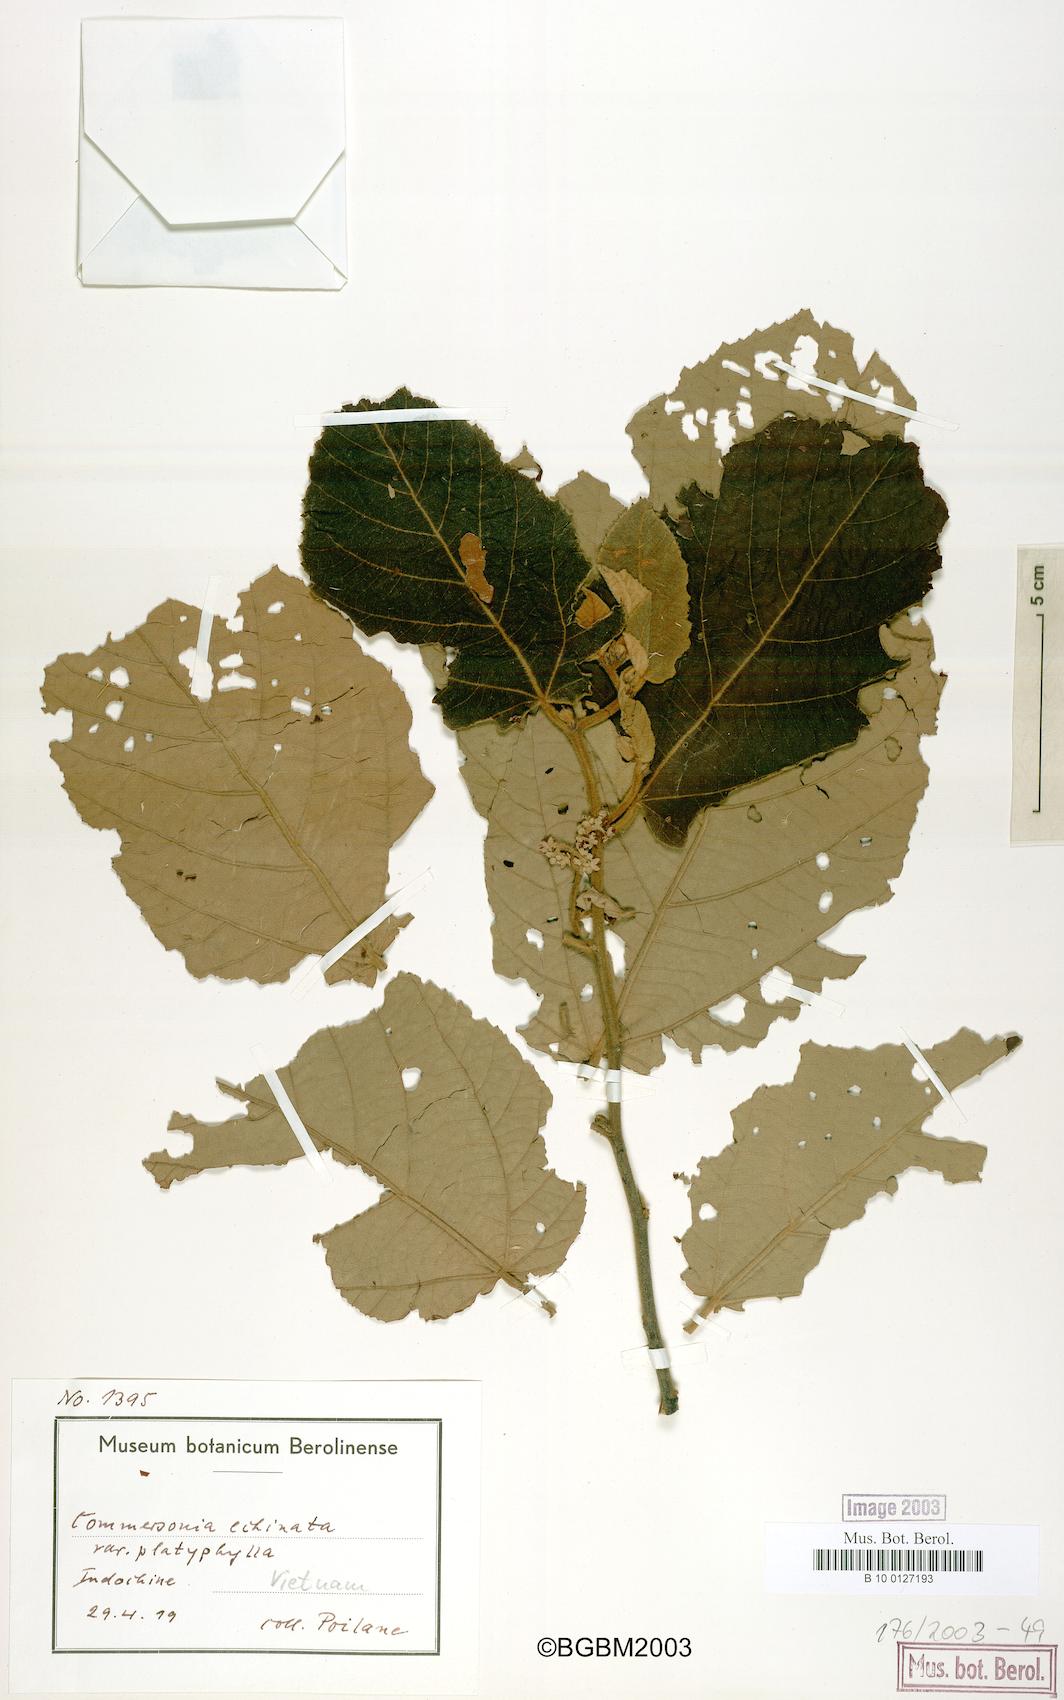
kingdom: Plantae
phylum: Tracheophyta
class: Magnoliopsida
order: Malvales
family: Malvaceae
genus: Commersonia
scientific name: Commersonia bartramia
